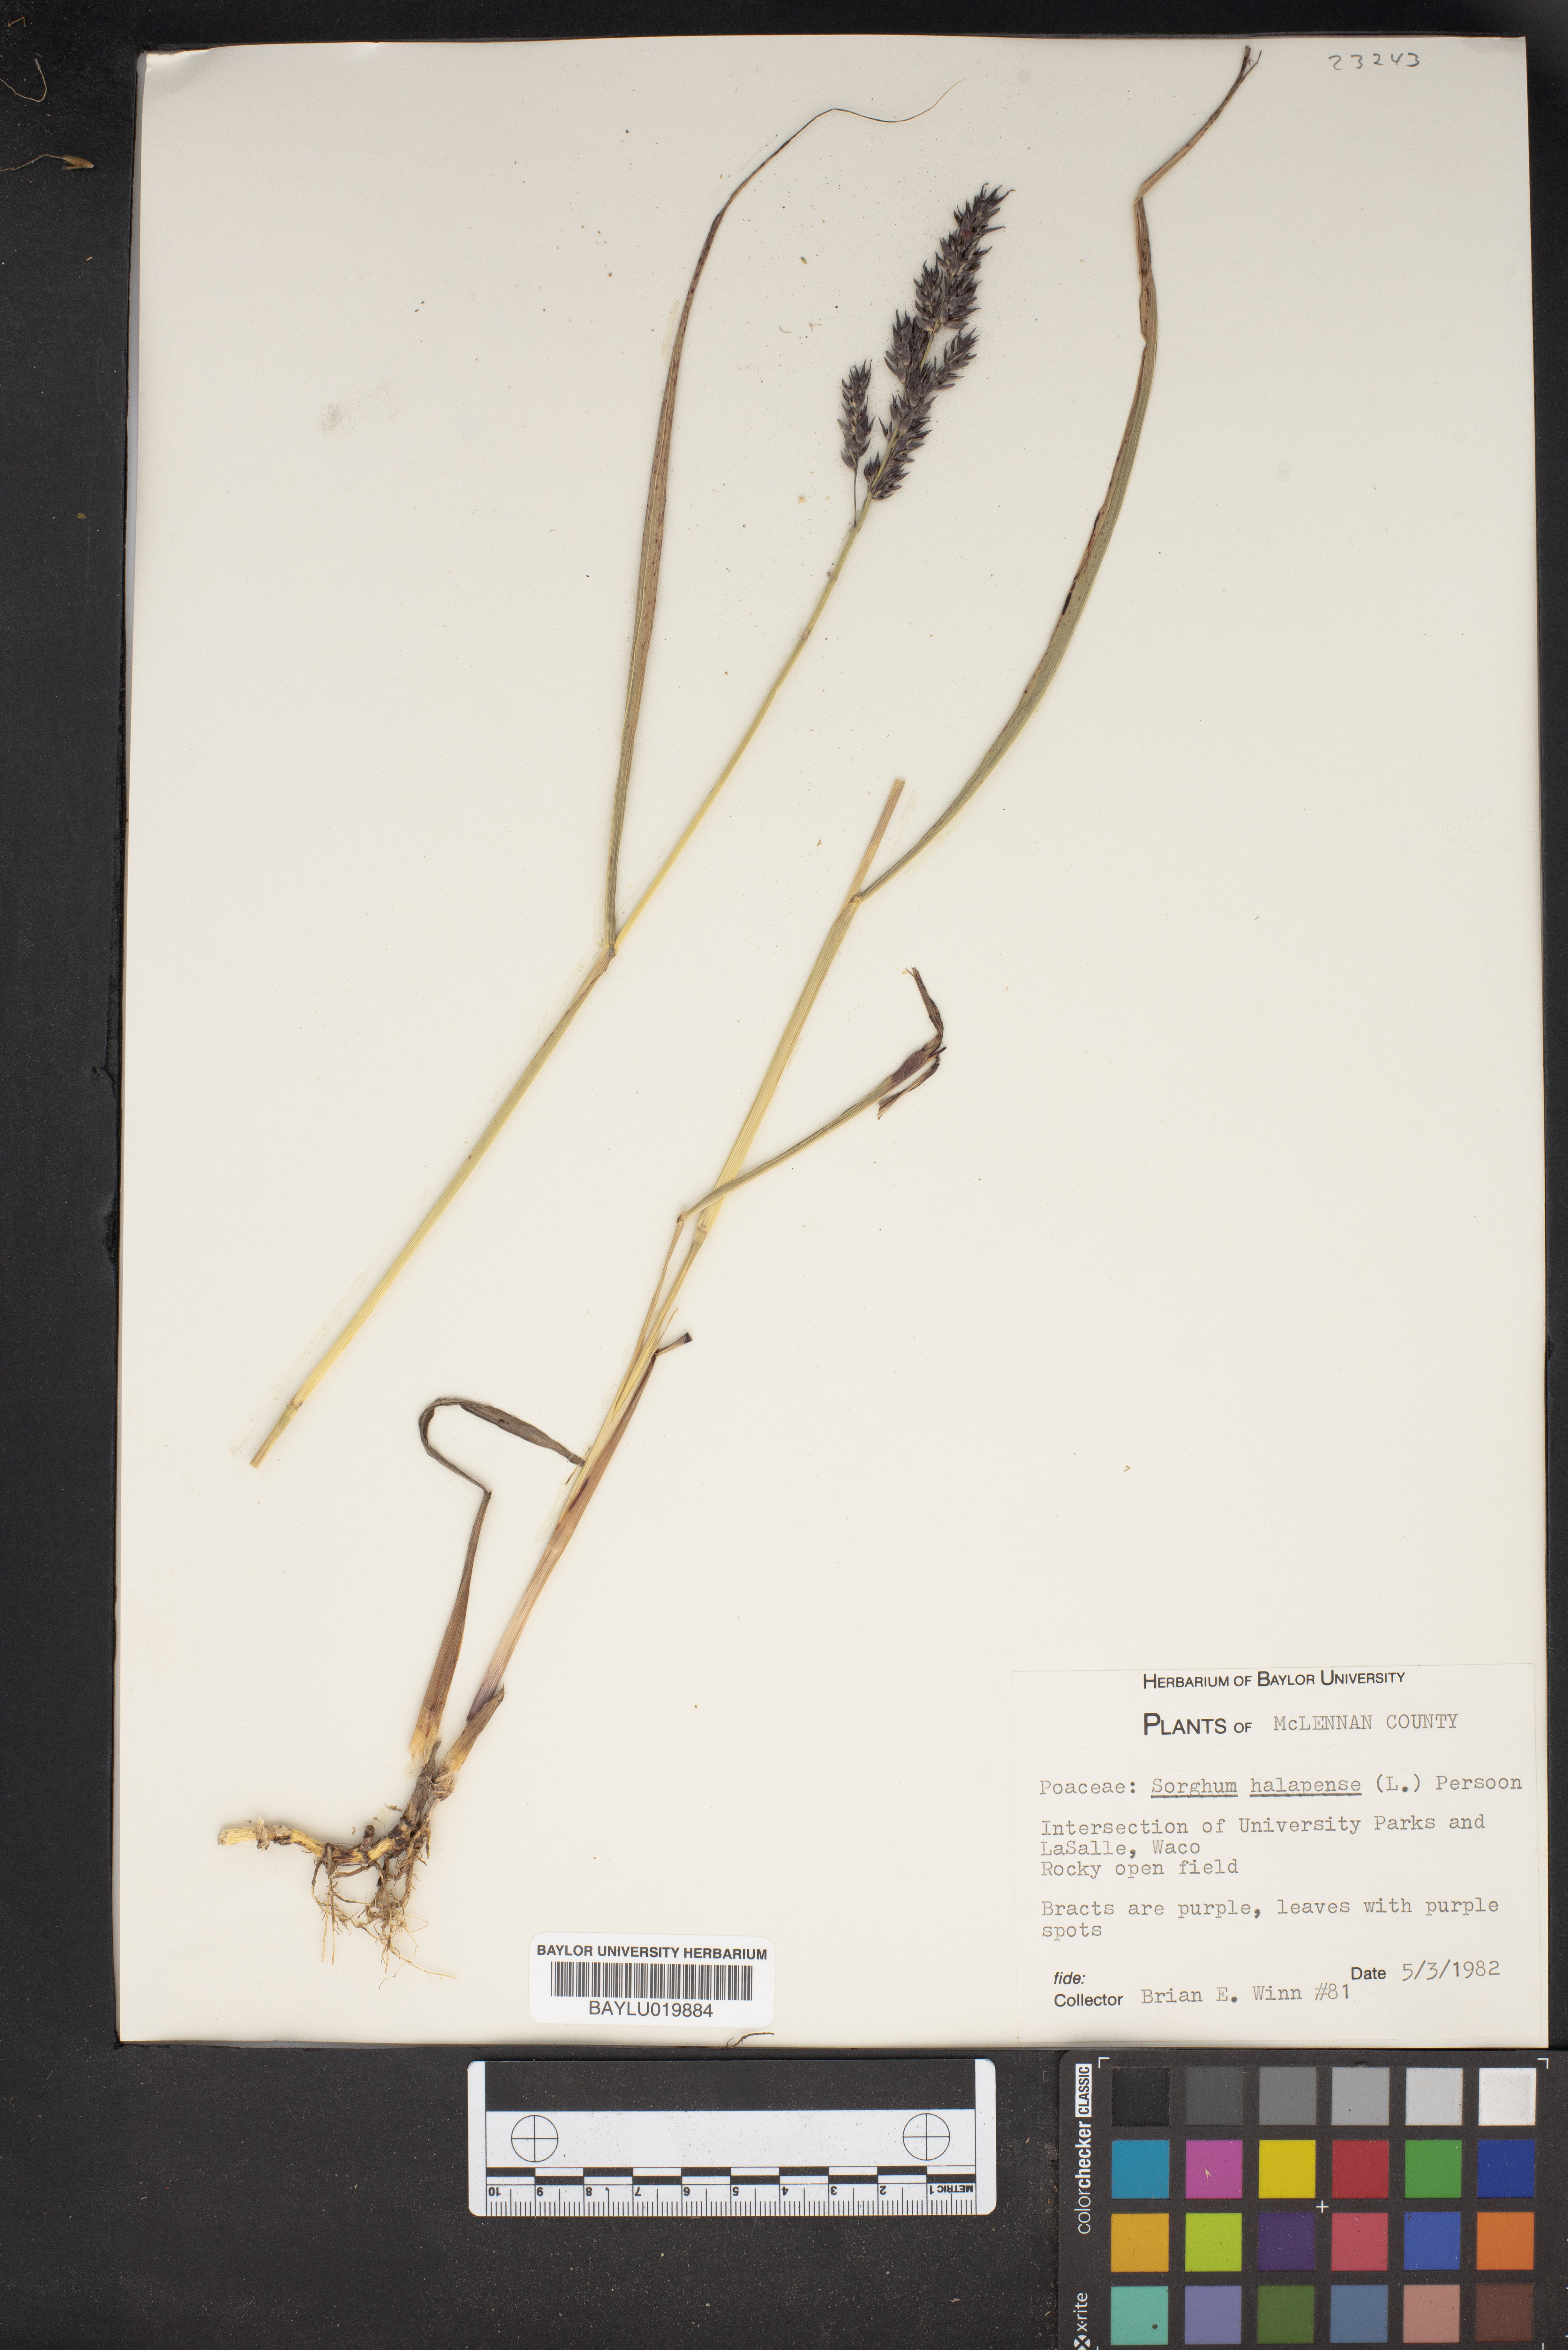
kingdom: Plantae
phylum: Tracheophyta
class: Liliopsida
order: Poales
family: Poaceae
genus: Sorghum
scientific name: Sorghum halepense
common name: Johnson-grass
